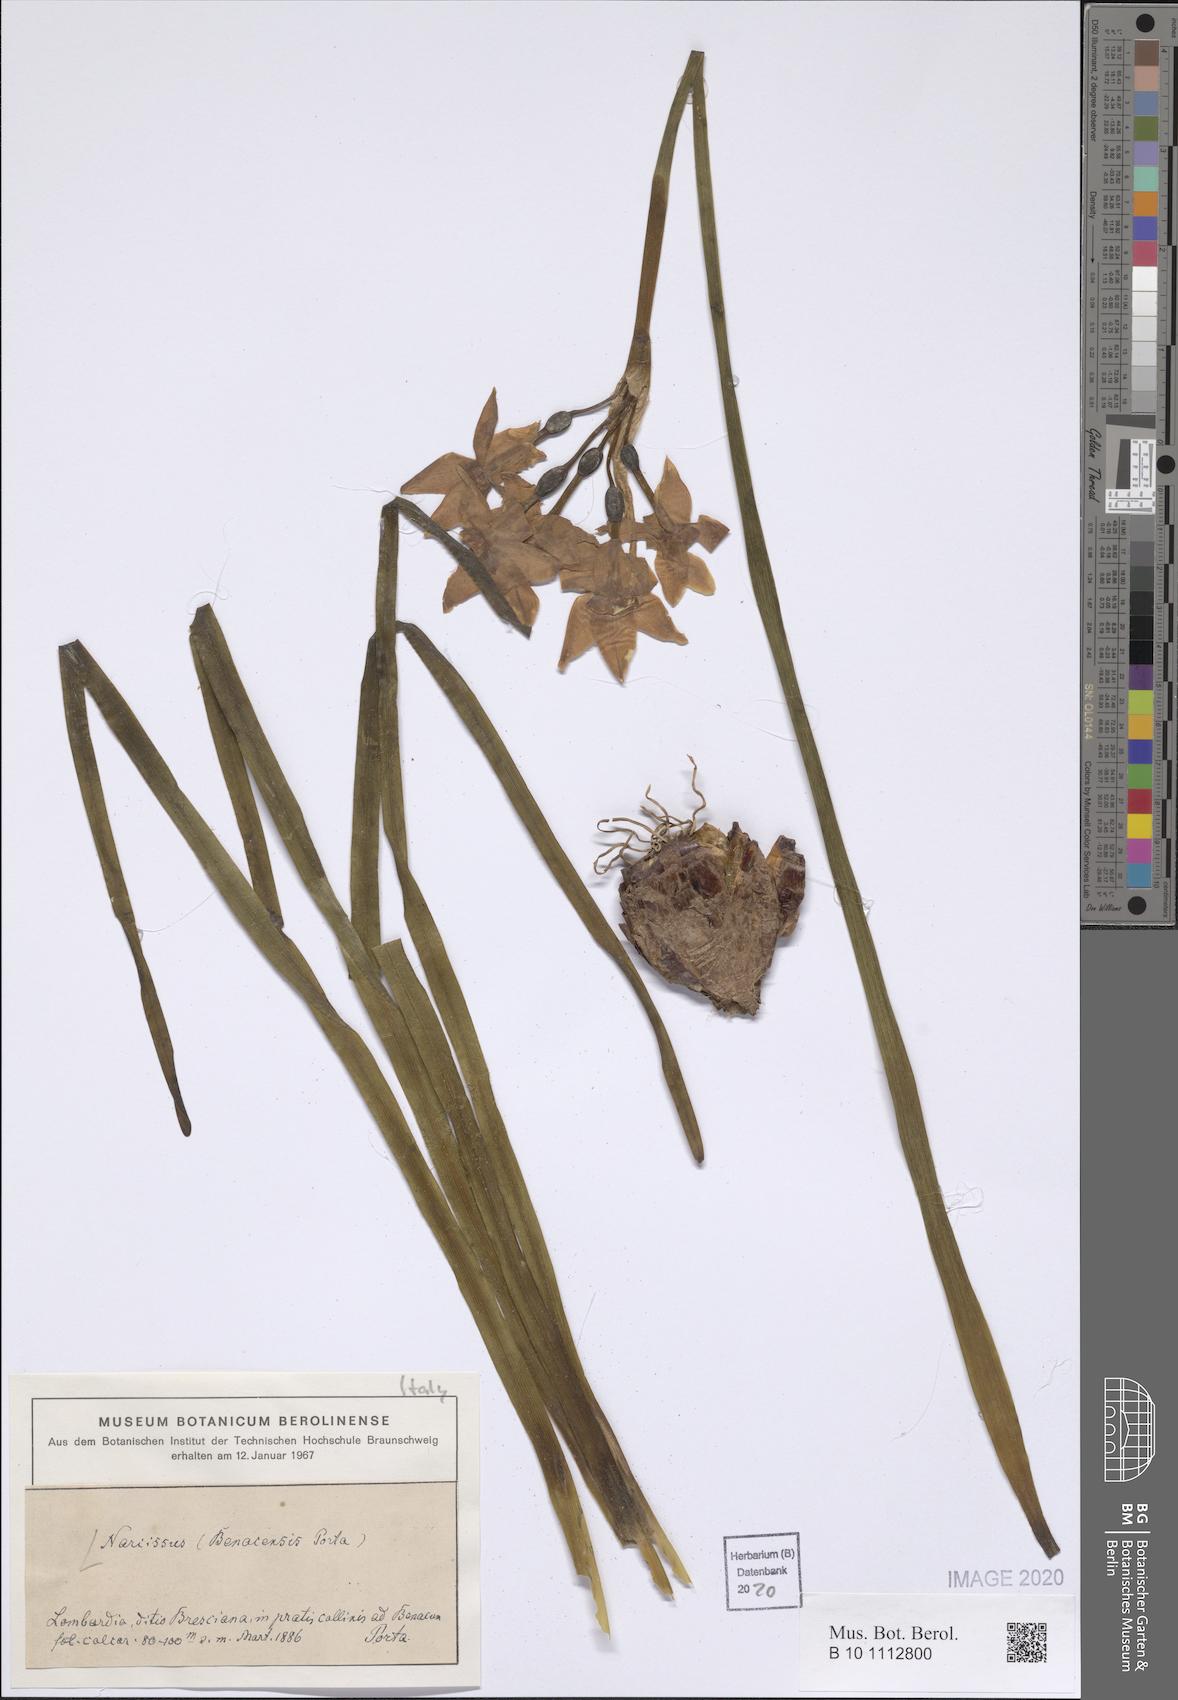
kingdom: Plantae
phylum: Tracheophyta
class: Liliopsida
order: Asparagales
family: Amaryllidaceae
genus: Narcissus
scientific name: Narcissus benacensis
